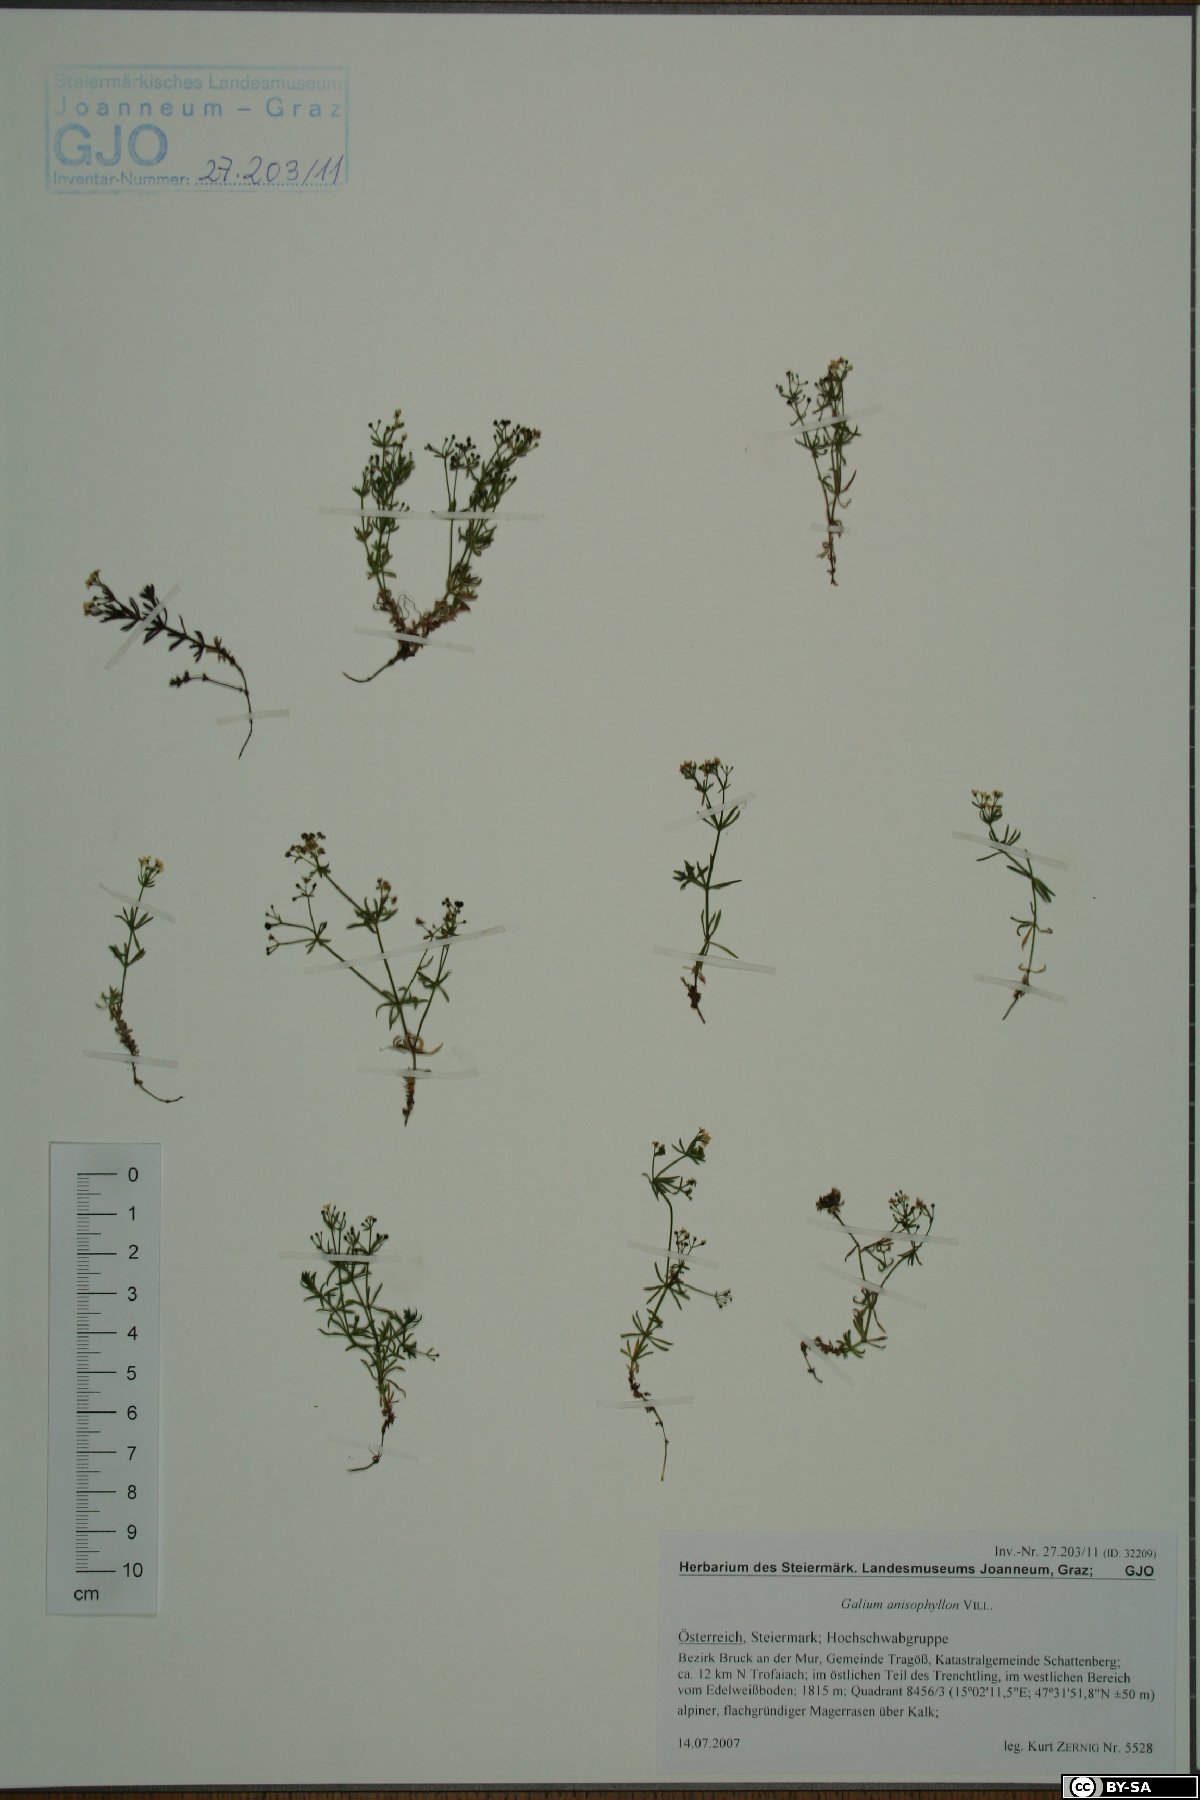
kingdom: Plantae
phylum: Tracheophyta
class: Magnoliopsida
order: Gentianales
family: Rubiaceae
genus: Galium
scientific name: Galium anisophyllon
